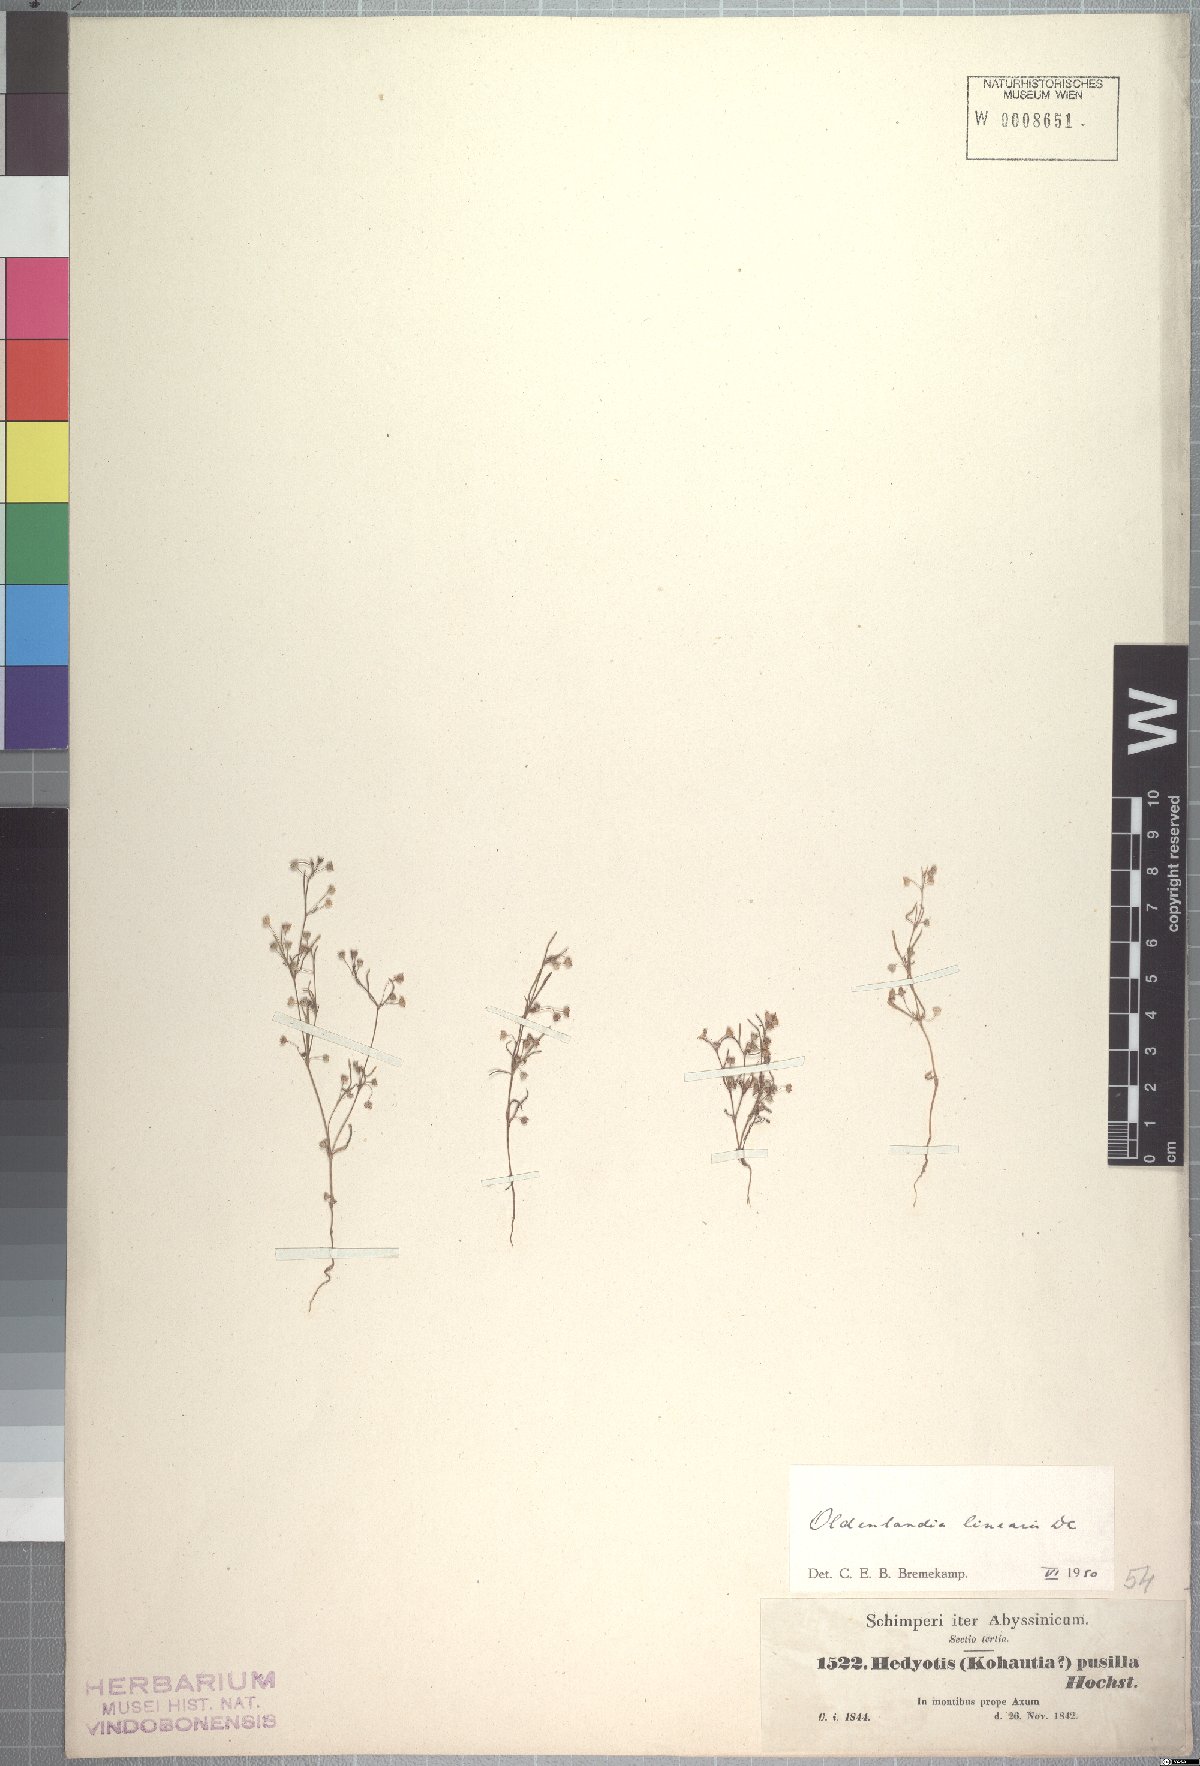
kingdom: Plantae
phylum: Tracheophyta
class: Magnoliopsida
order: Gentianales
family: Rubiaceae
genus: Oldenlandia
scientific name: Oldenlandia corymbosa
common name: Flat-top mille graines
